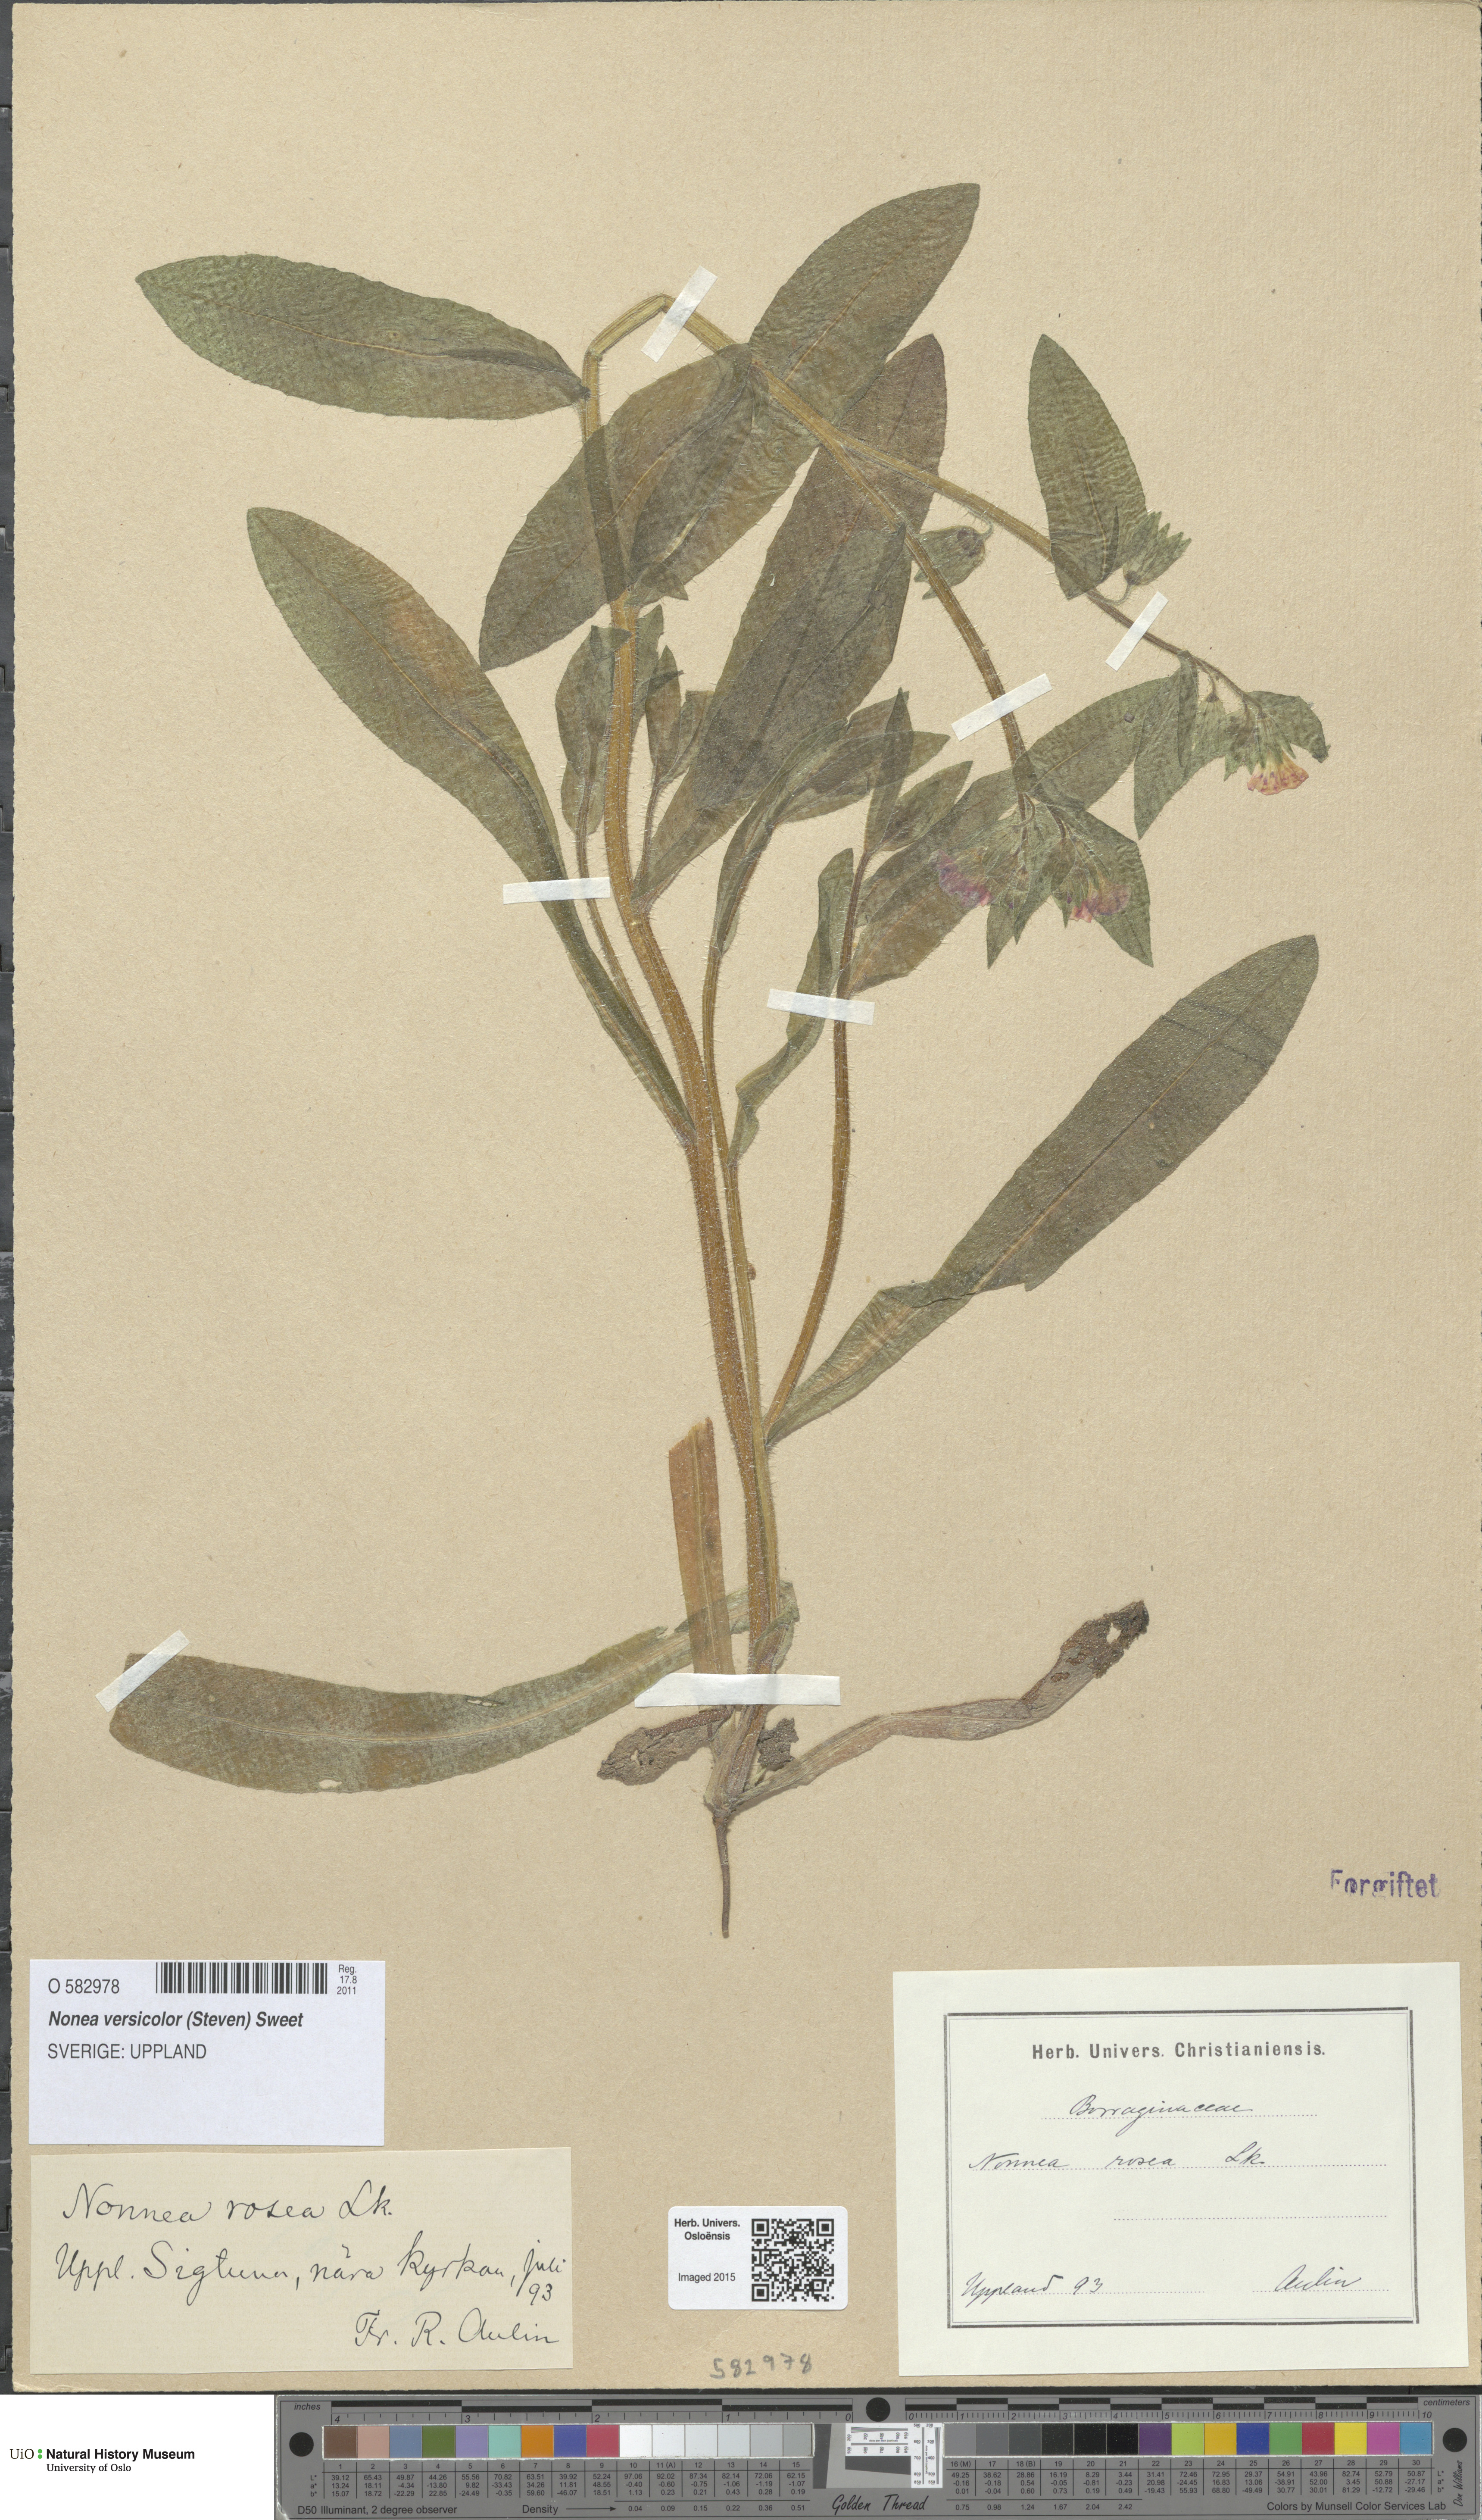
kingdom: Plantae
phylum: Tracheophyta
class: Magnoliopsida
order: Boraginales
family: Boraginaceae
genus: Nonea
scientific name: Nonea versicolor
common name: Varied monkswort
